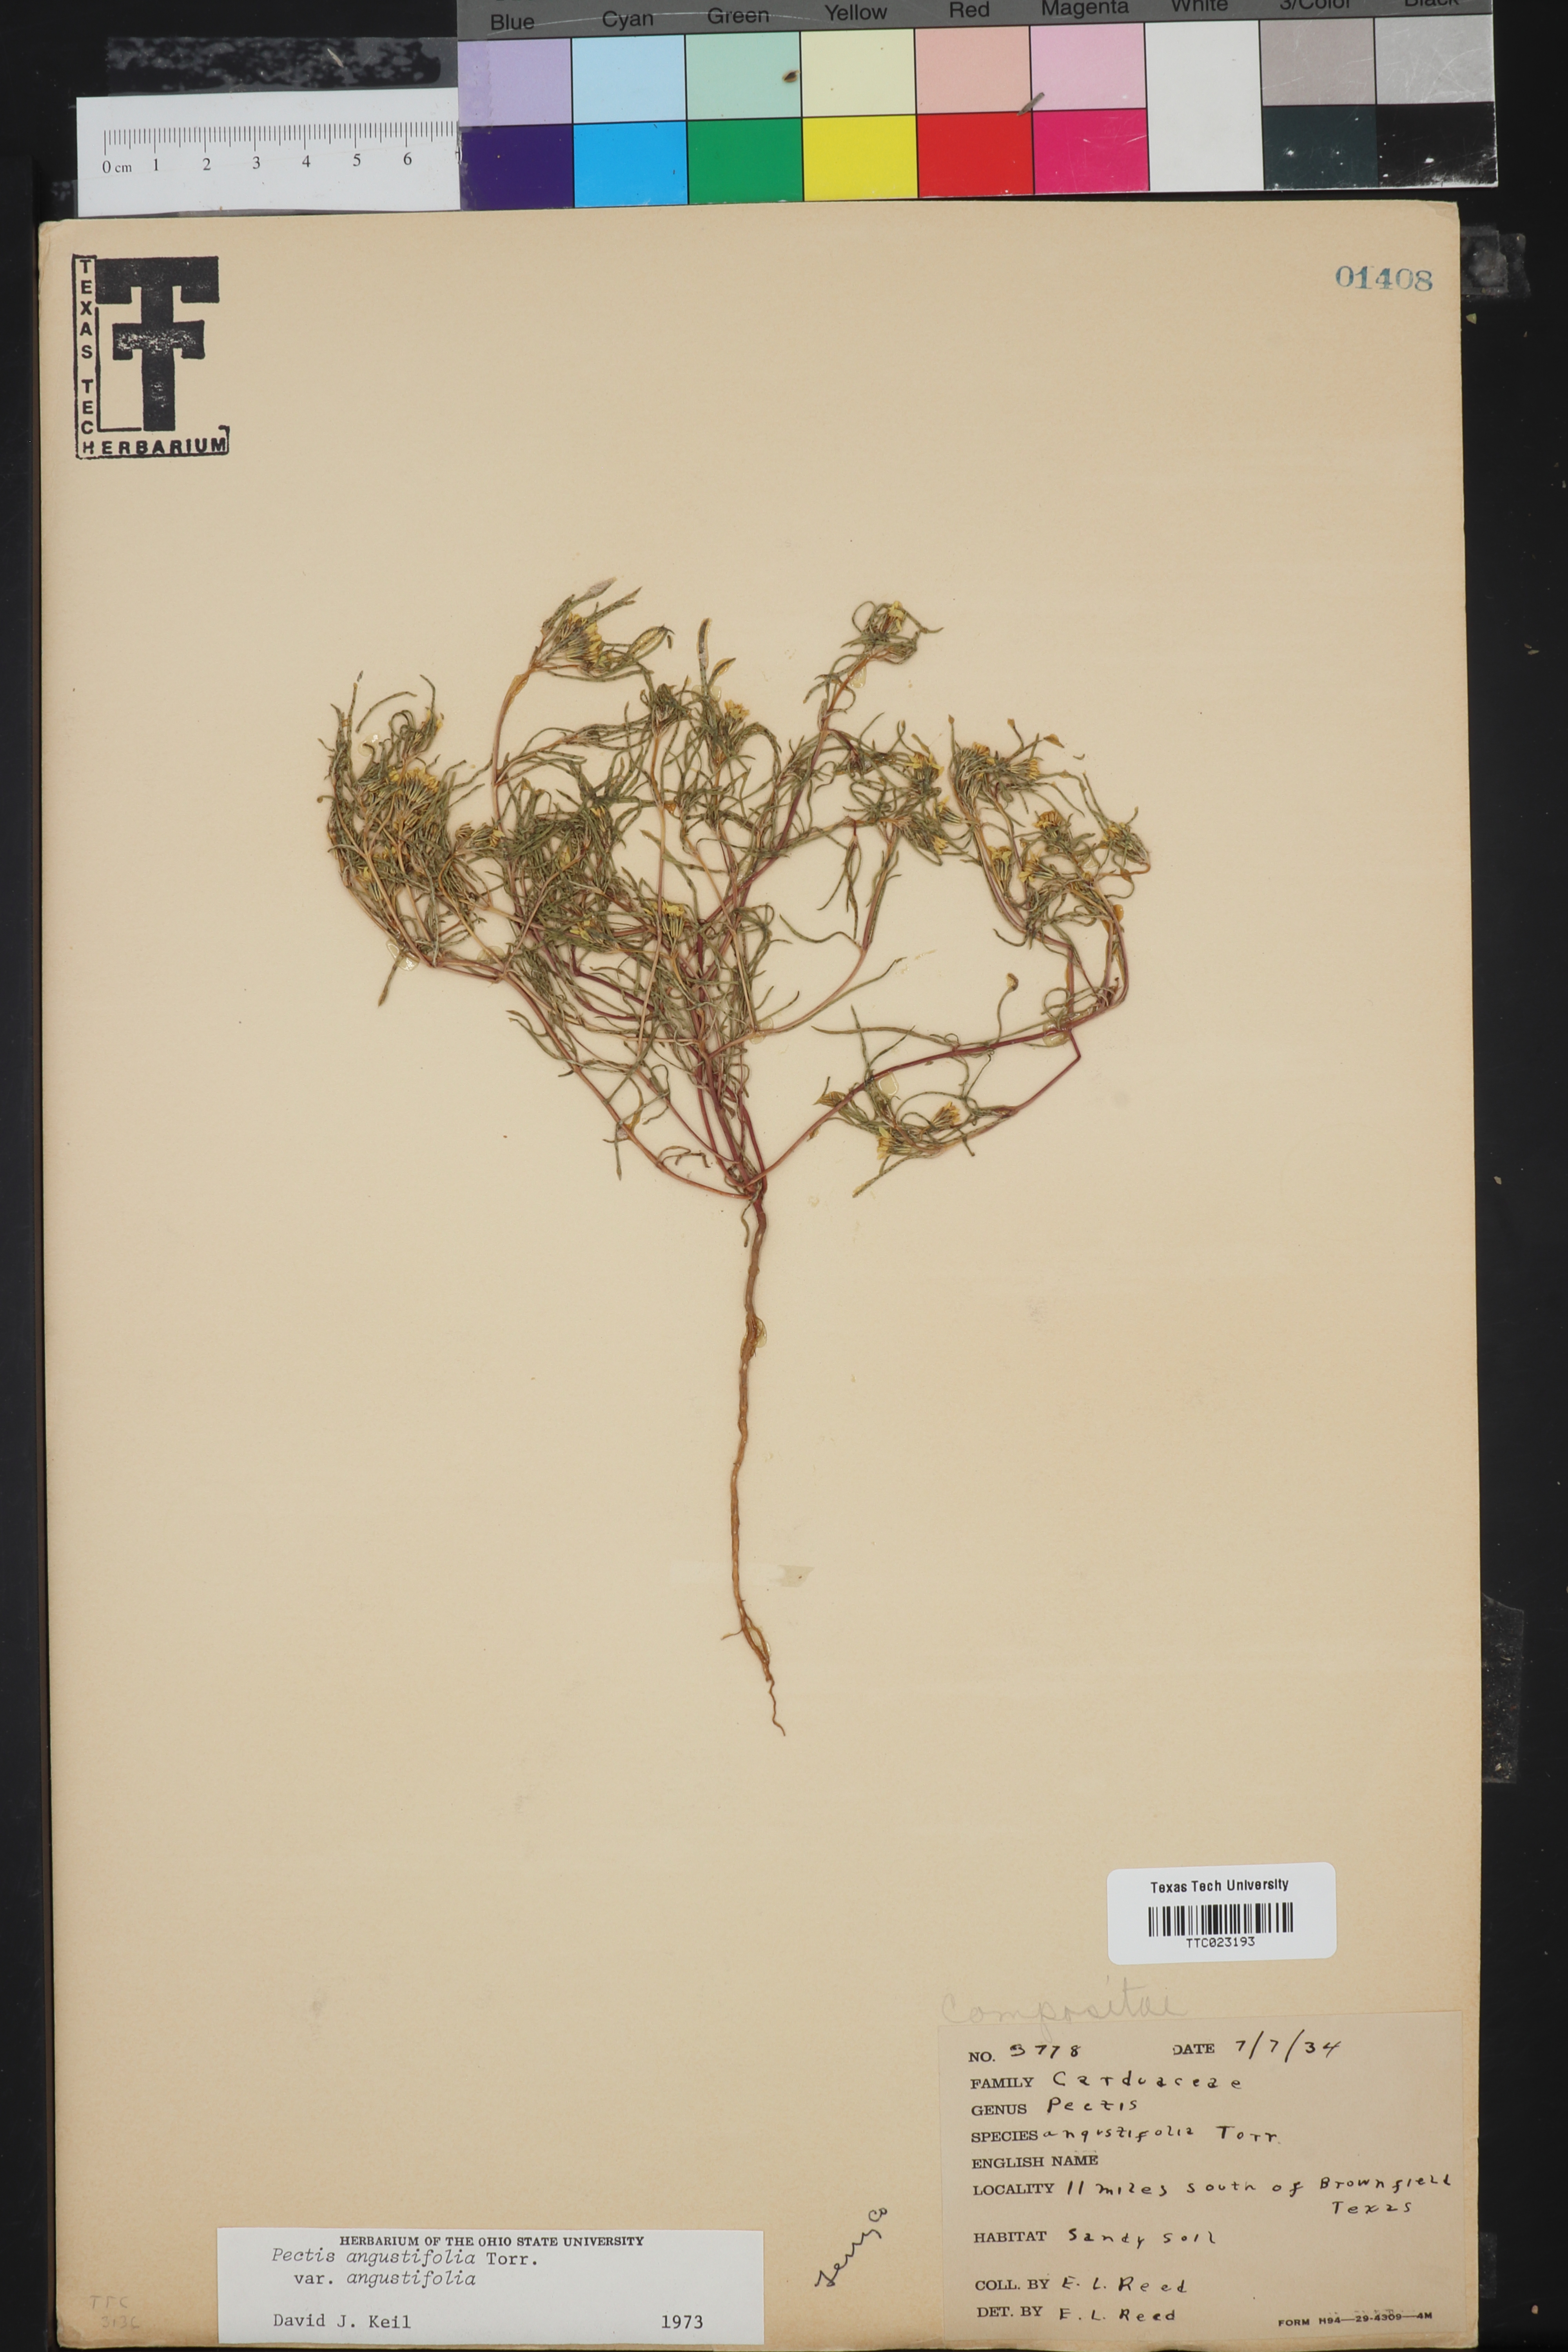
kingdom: Plantae
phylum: Tracheophyta
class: Magnoliopsida
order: Asterales
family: Asteraceae
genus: Pectis
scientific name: Pectis angustifolia
